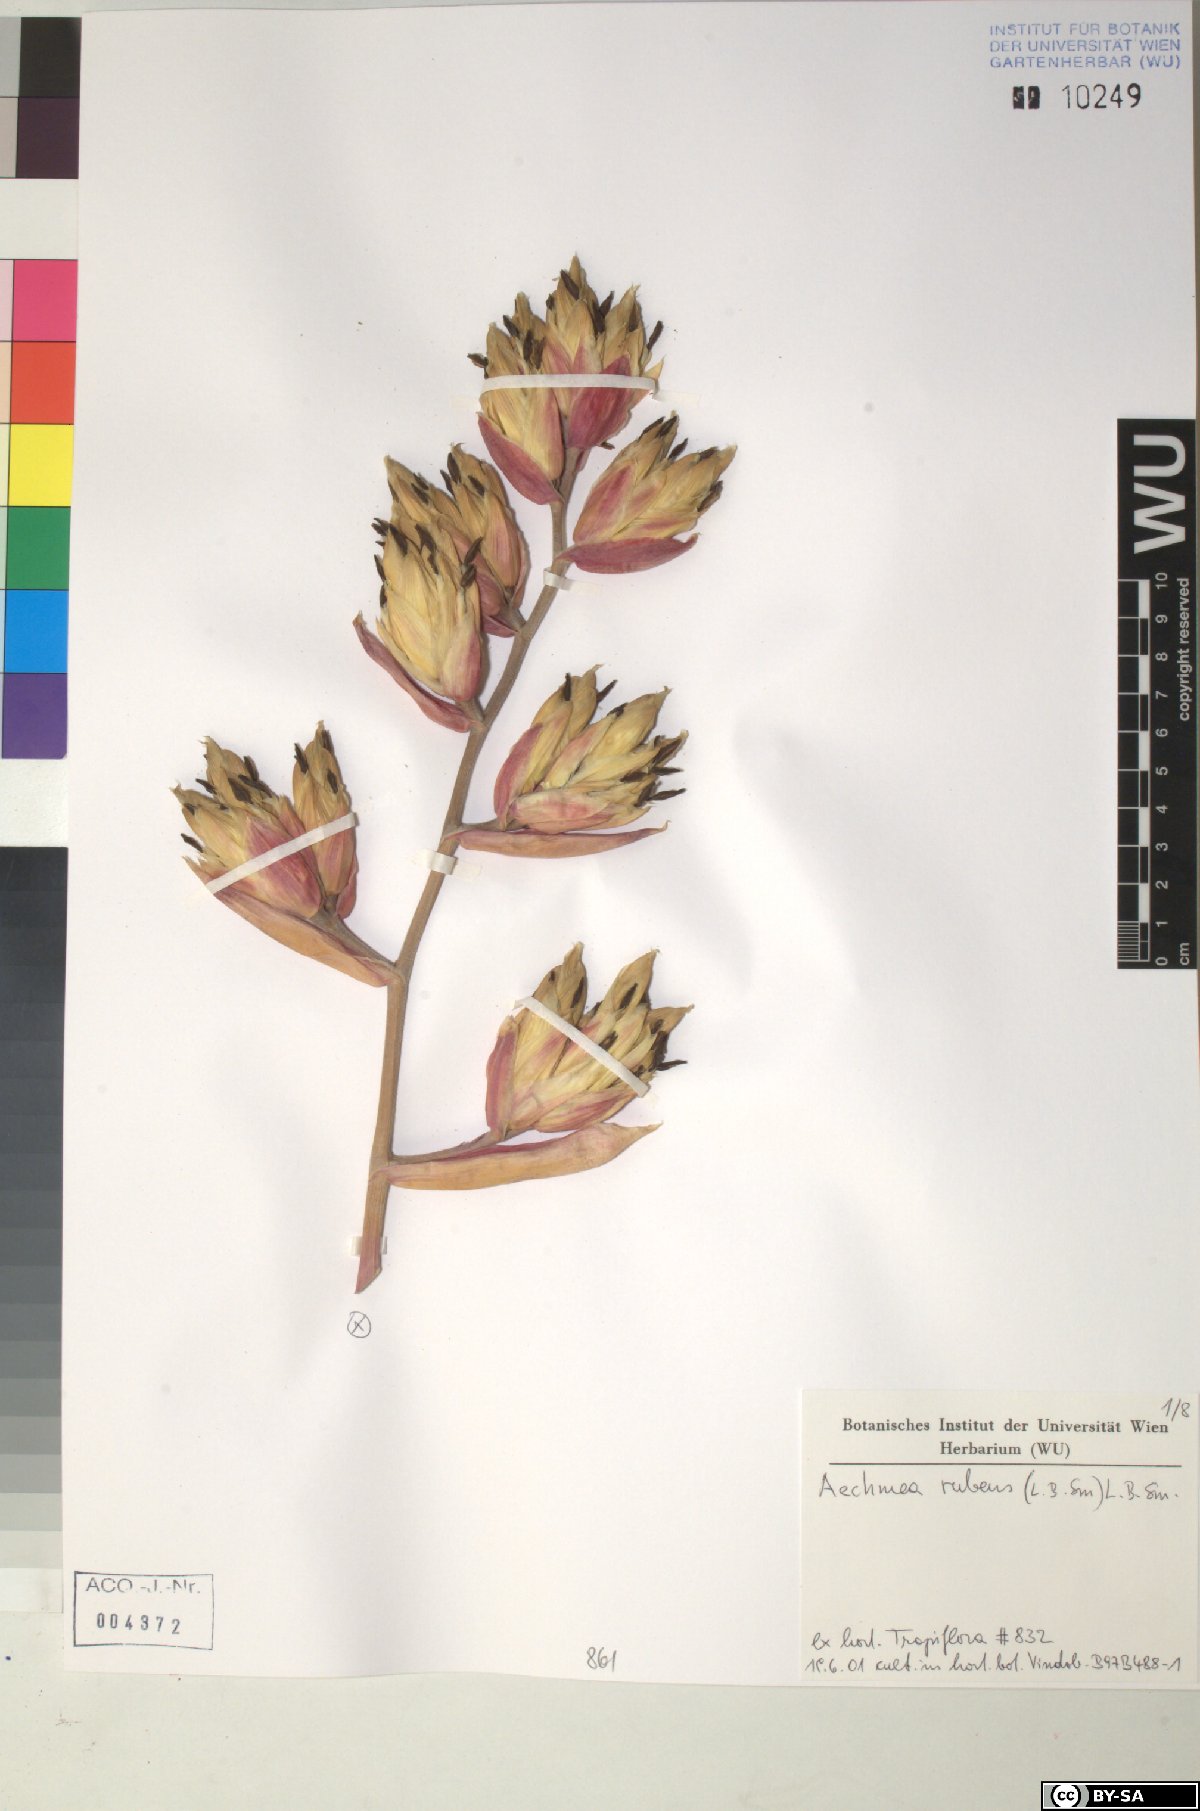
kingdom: Plantae
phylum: Tracheophyta
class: Liliopsida
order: Poales
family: Bromeliaceae
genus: Aechmea
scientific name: Aechmea rubens
